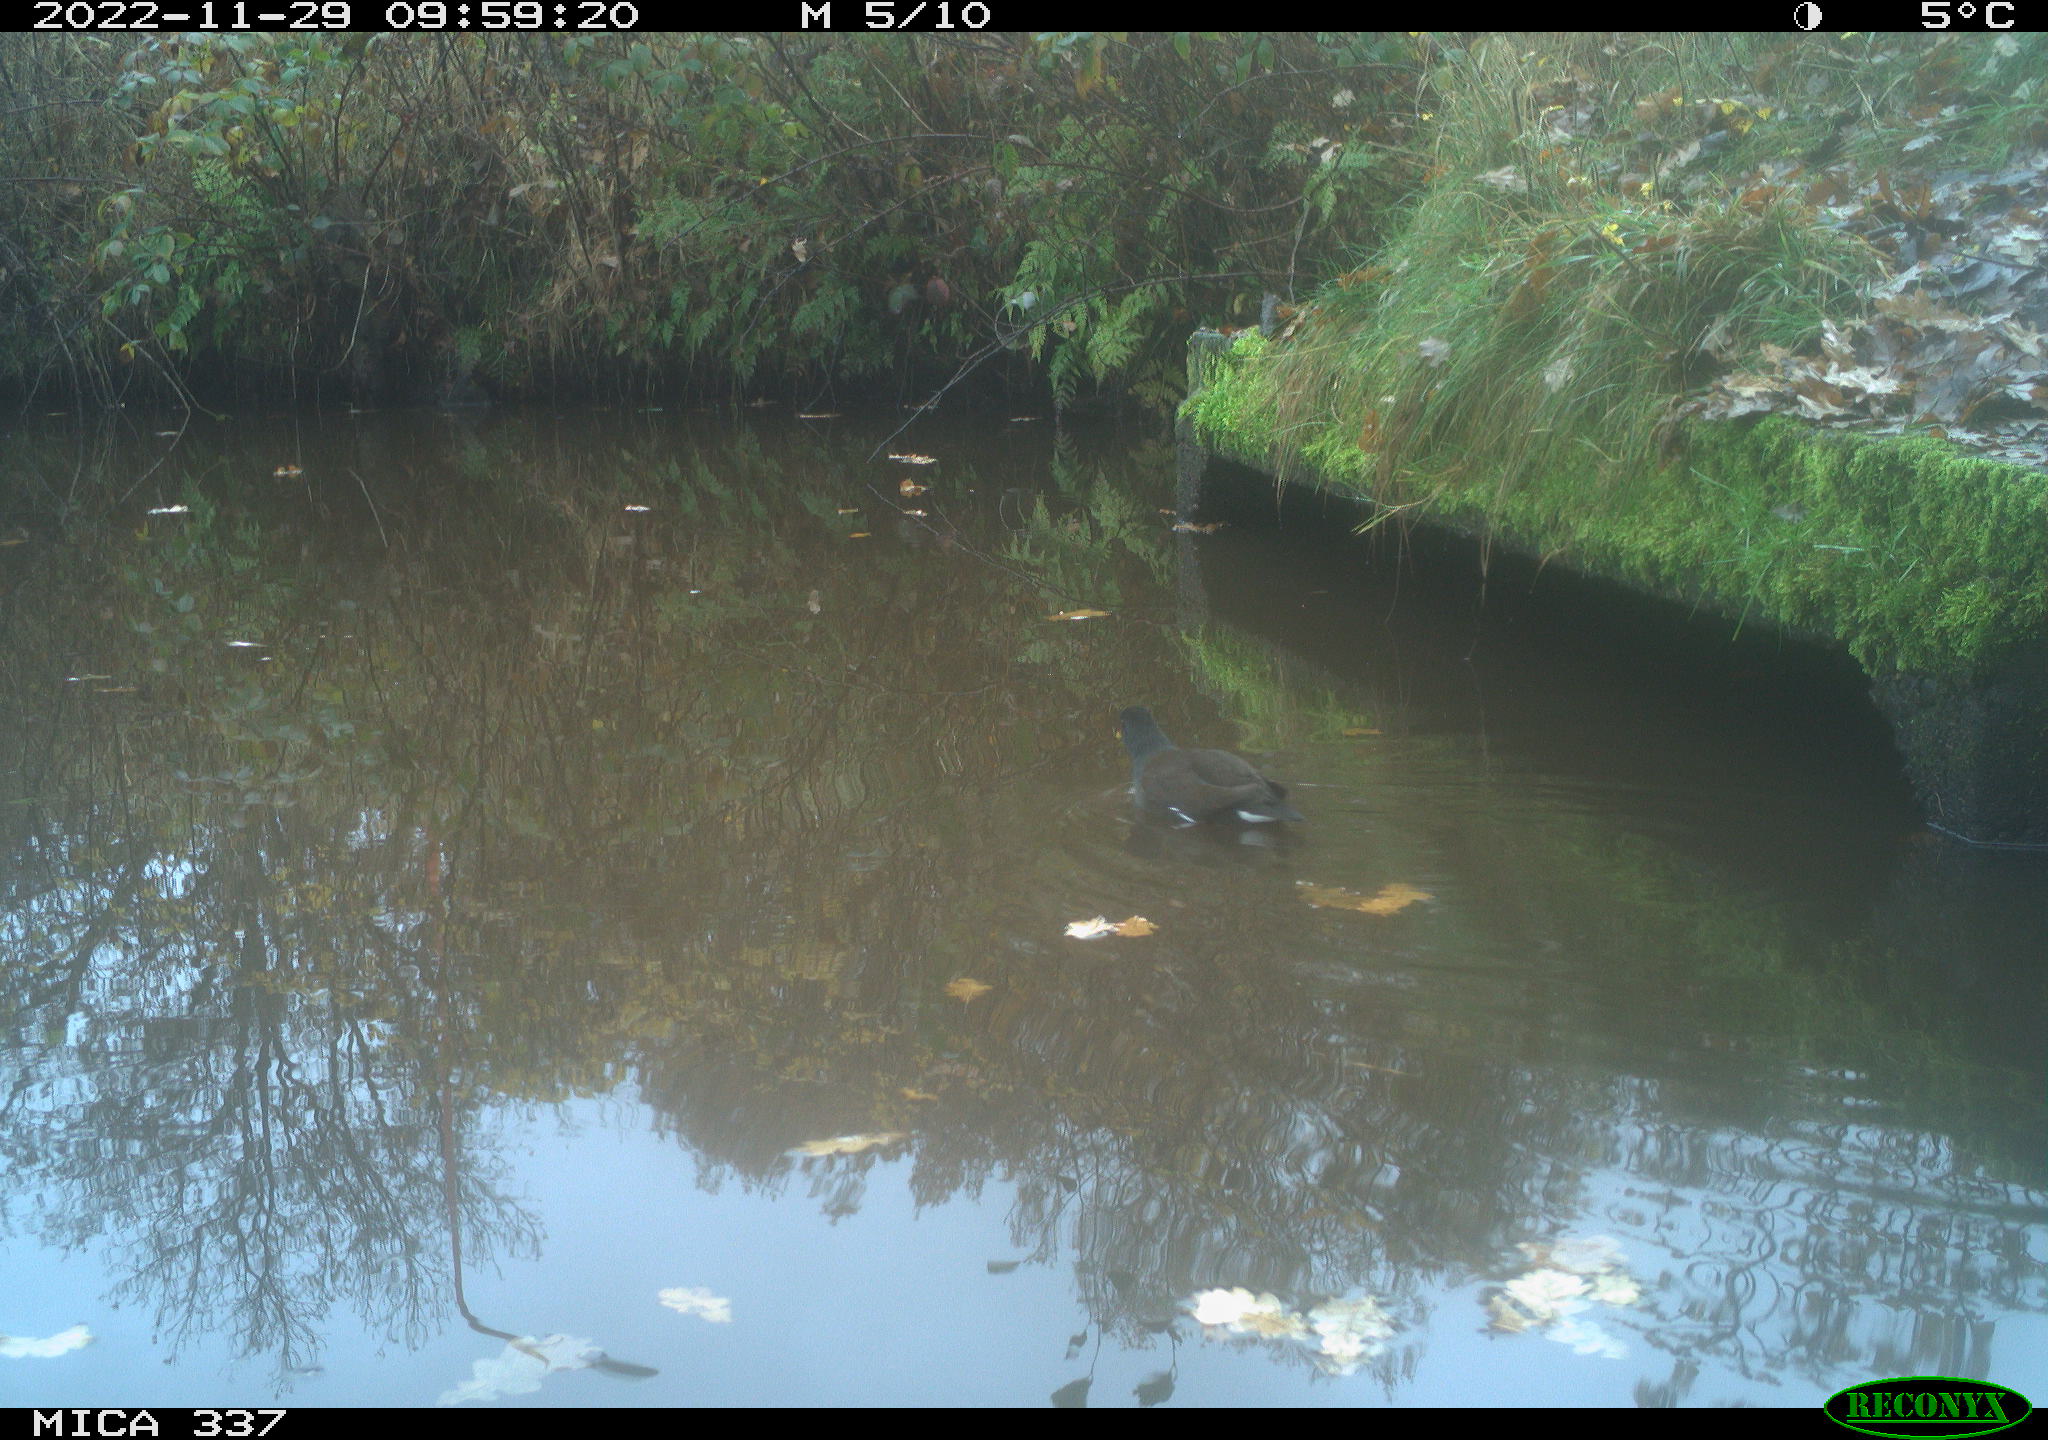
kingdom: Animalia
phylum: Chordata
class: Aves
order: Gruiformes
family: Rallidae
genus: Gallinula
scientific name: Gallinula chloropus
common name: Common moorhen
